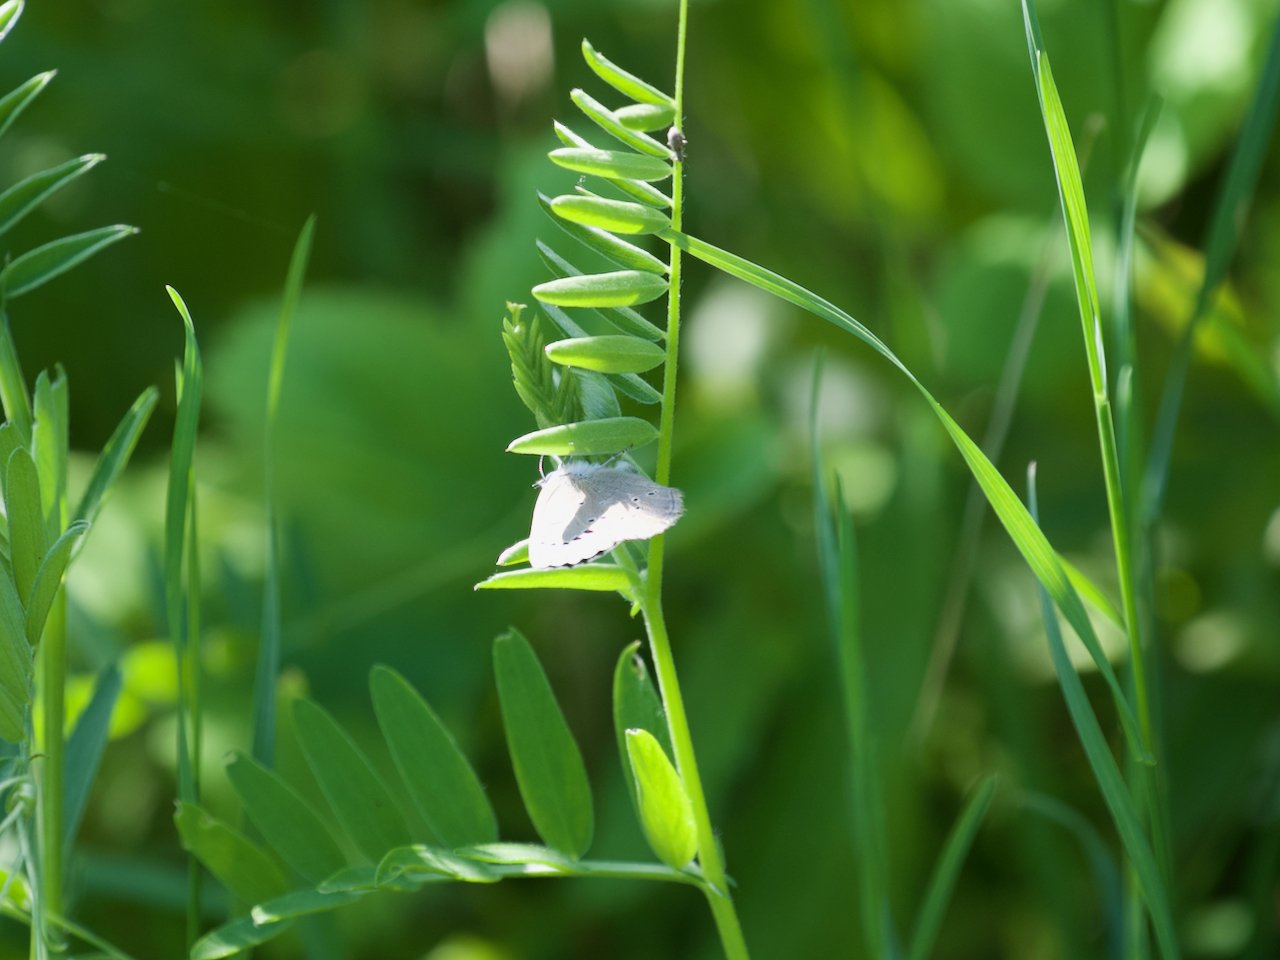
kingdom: Animalia
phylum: Arthropoda
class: Insecta
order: Lepidoptera
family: Lycaenidae
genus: Glaucopsyche
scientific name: Glaucopsyche lygdamus
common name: Silvery Blue
